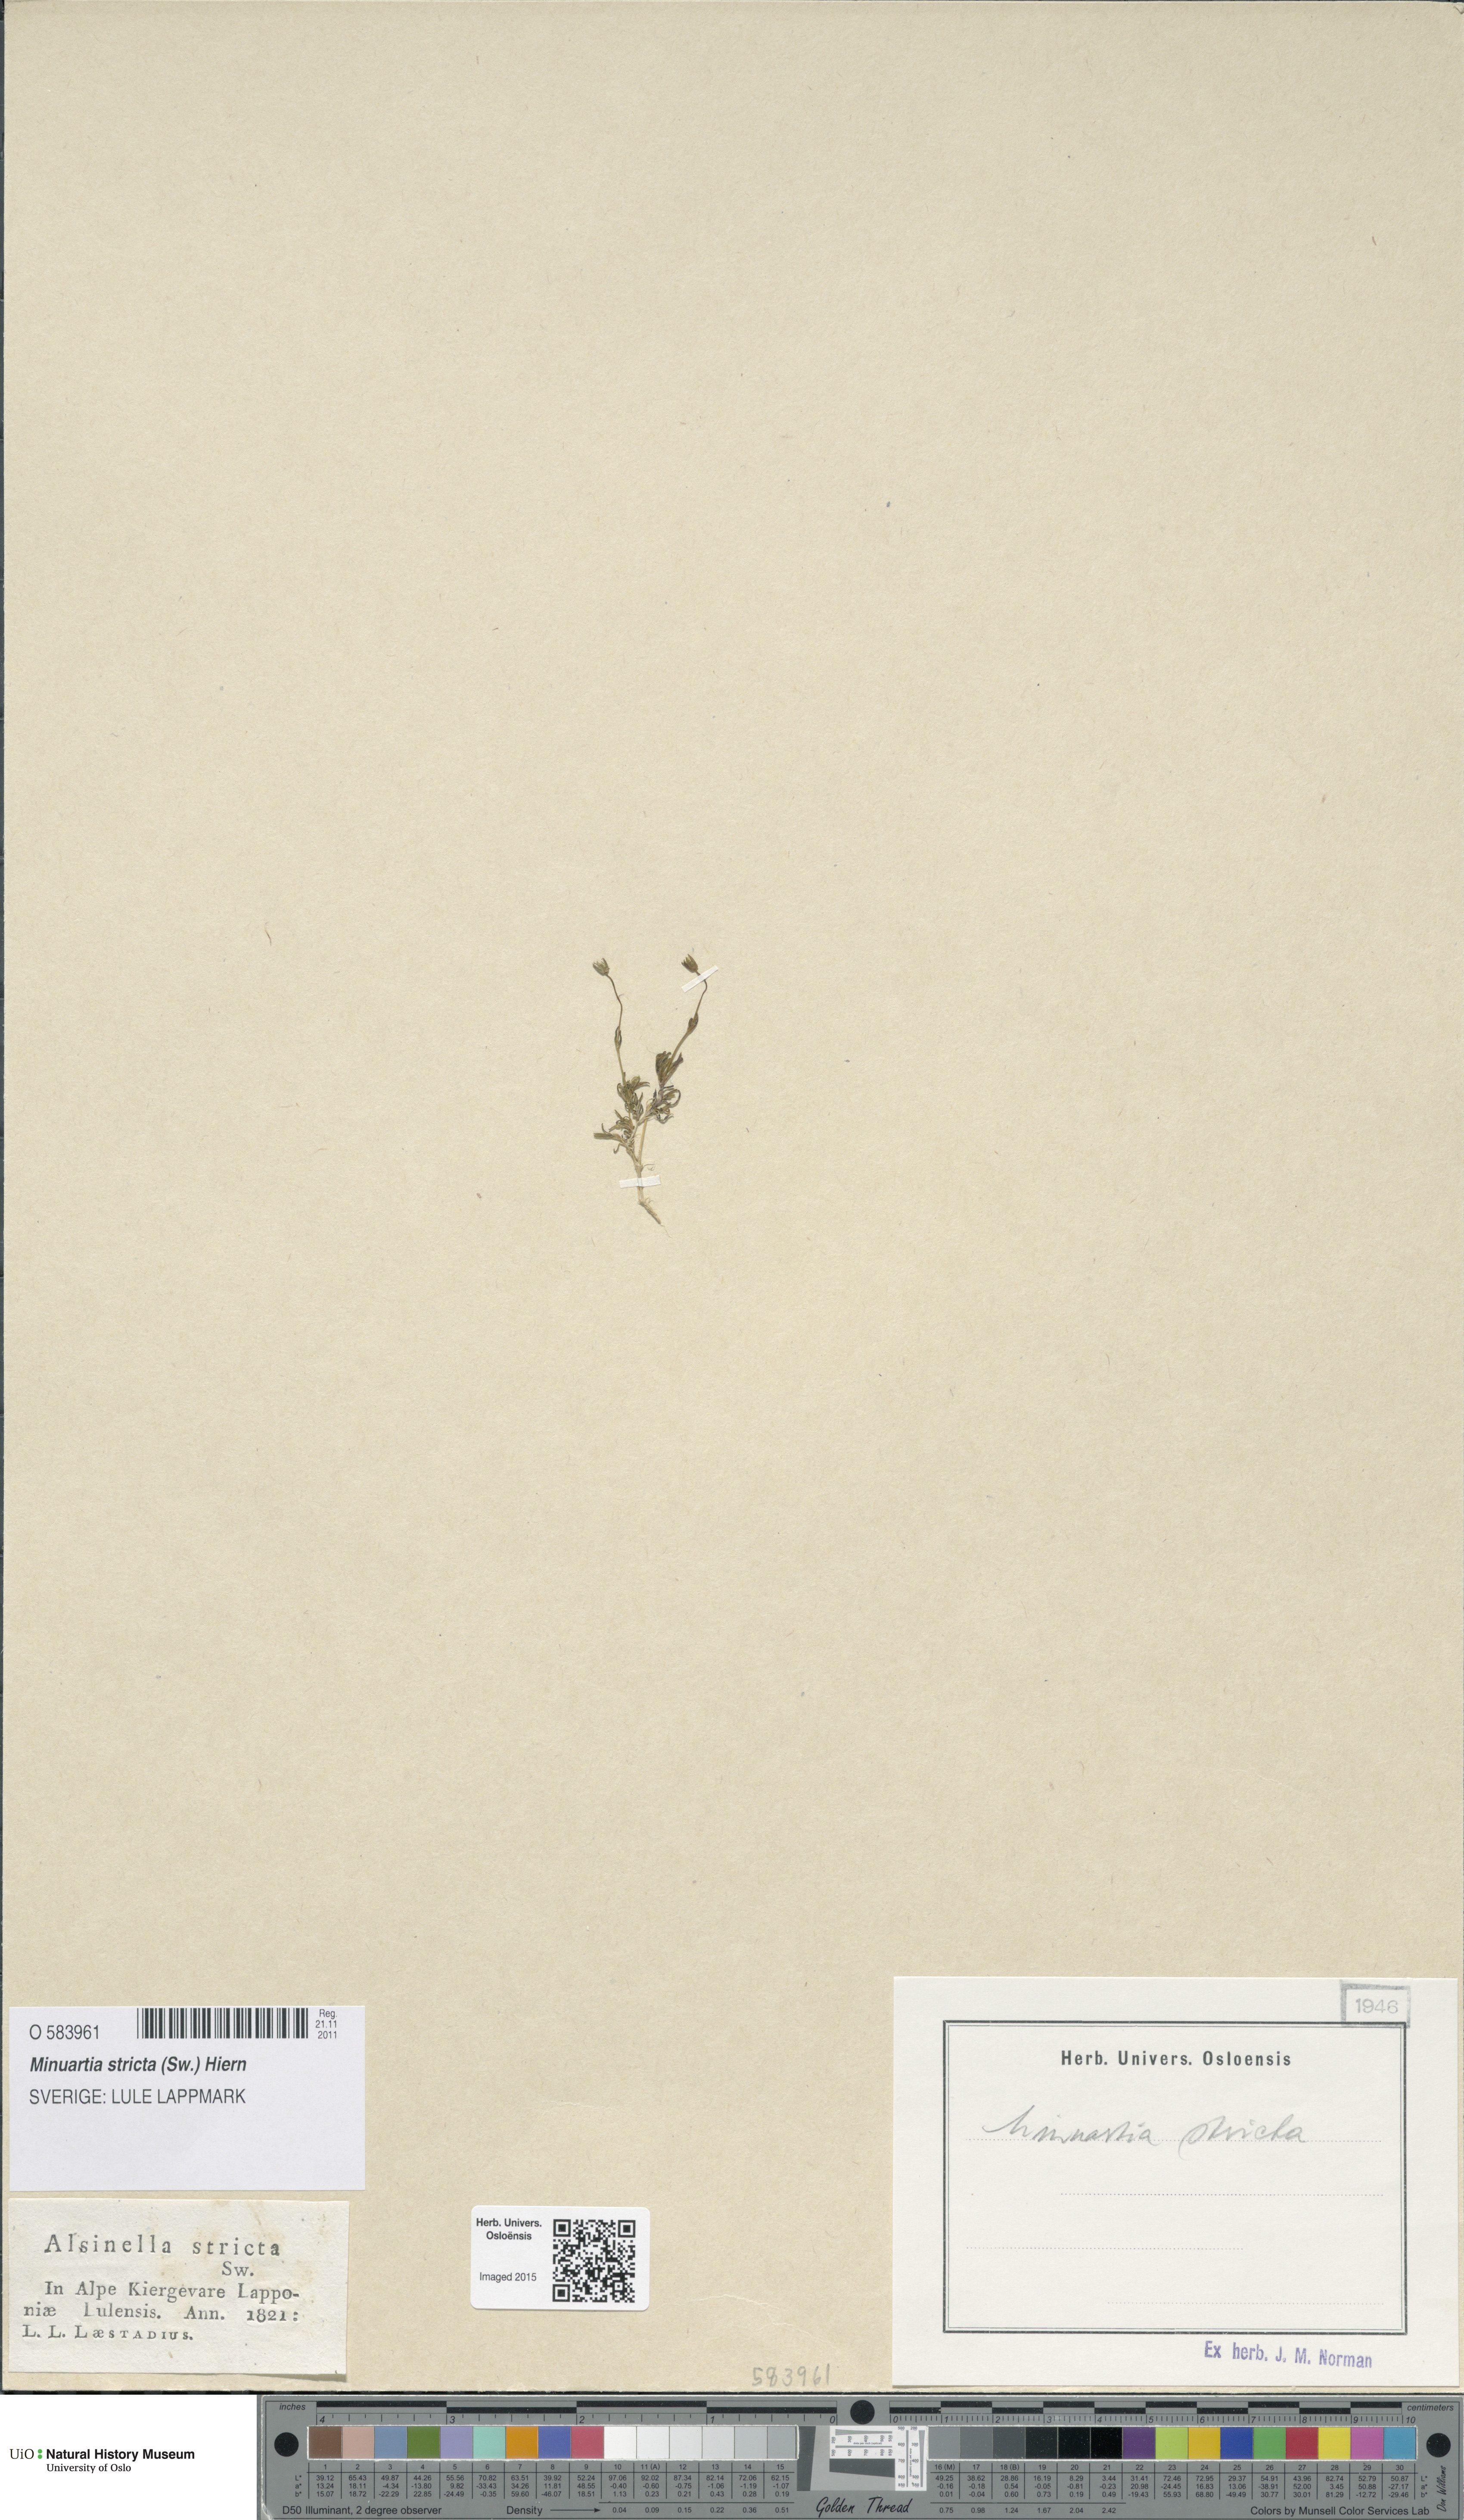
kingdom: Plantae
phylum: Tracheophyta
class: Magnoliopsida
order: Caryophyllales
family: Caryophyllaceae
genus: Sabulina
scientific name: Sabulina stricta
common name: Bog sandwort
